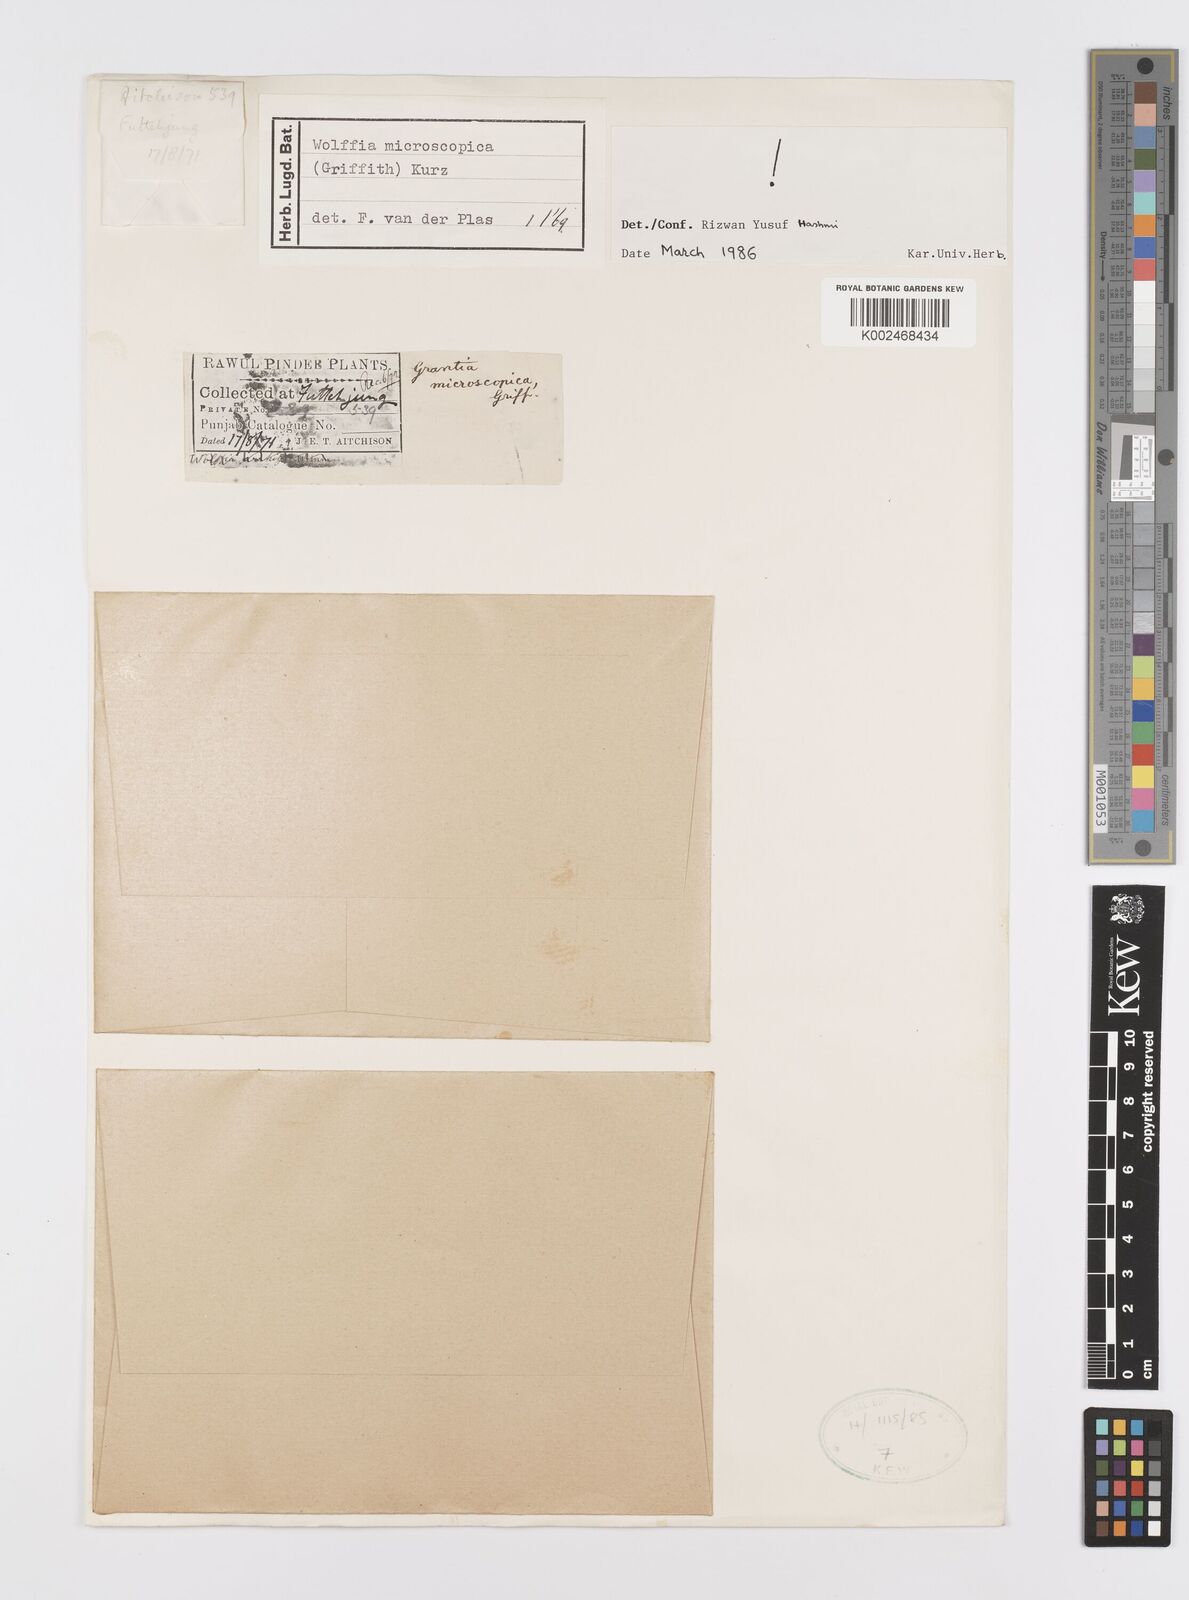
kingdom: Plantae
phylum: Tracheophyta
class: Liliopsida
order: Alismatales
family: Araceae
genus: Wolffia
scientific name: Wolffia microscopica
